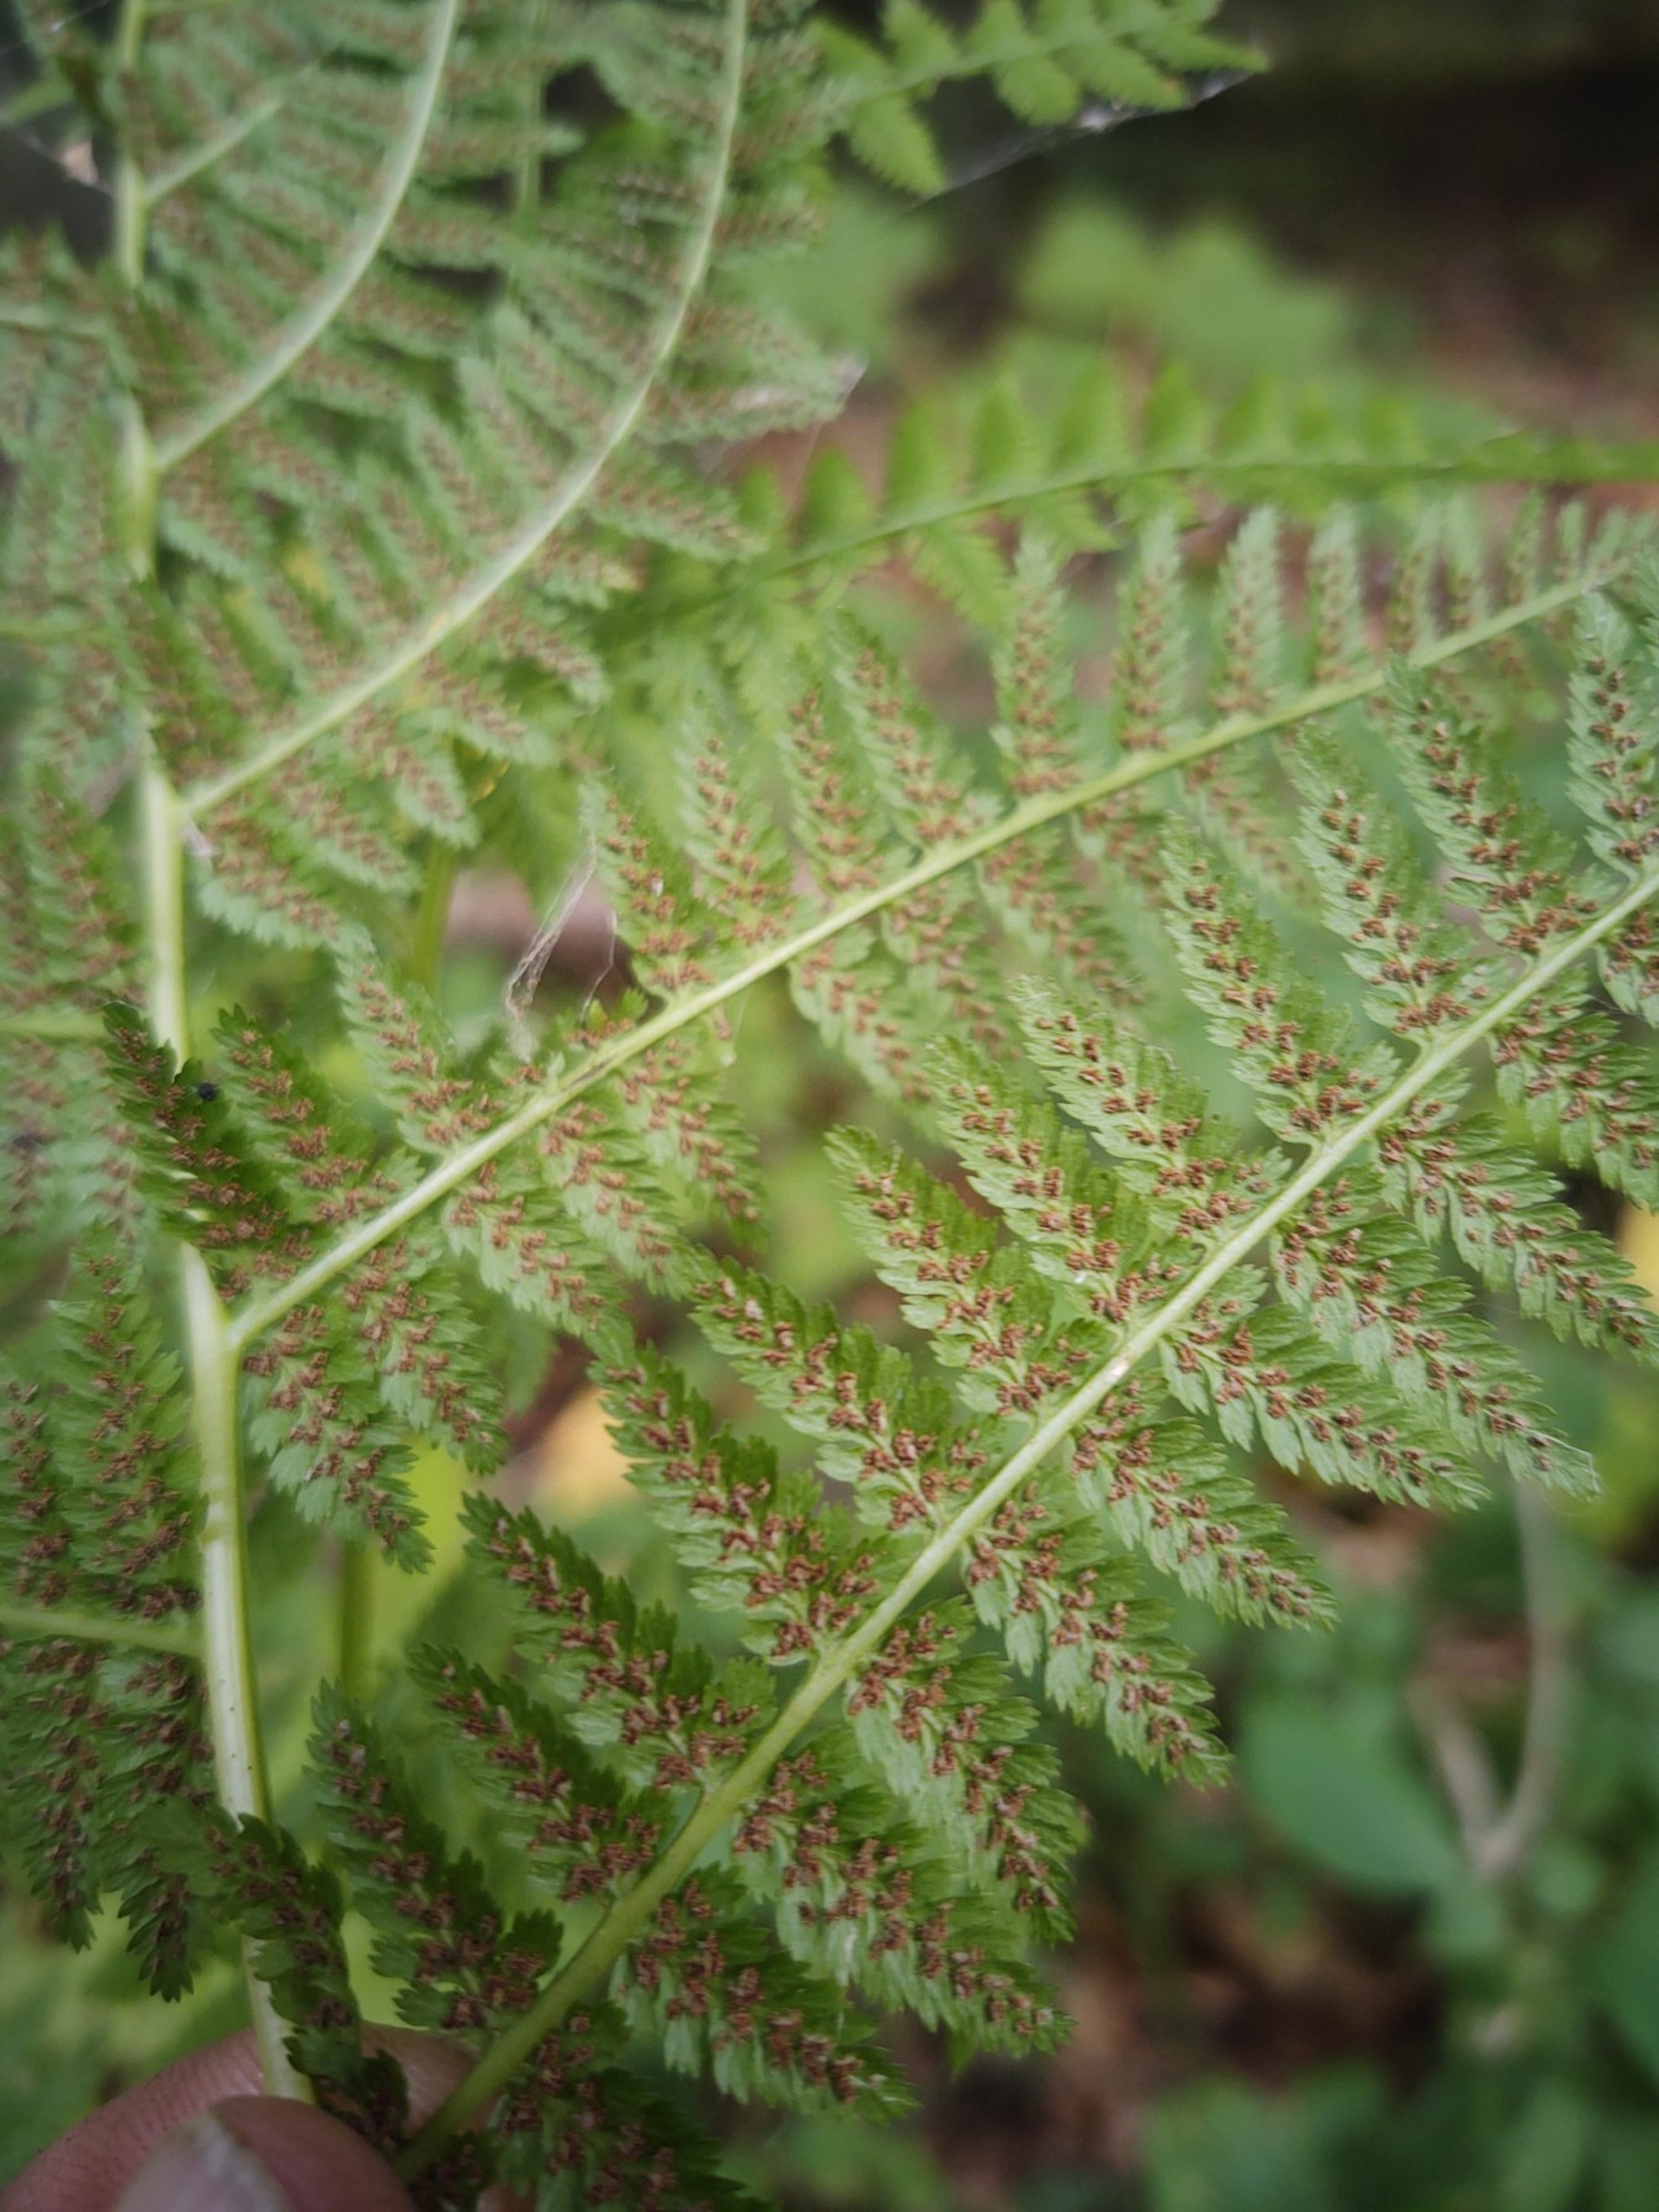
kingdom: Plantae
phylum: Tracheophyta
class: Polypodiopsida
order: Polypodiales
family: Athyriaceae
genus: Athyrium
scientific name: Athyrium filix-femina
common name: Fjerbregne
